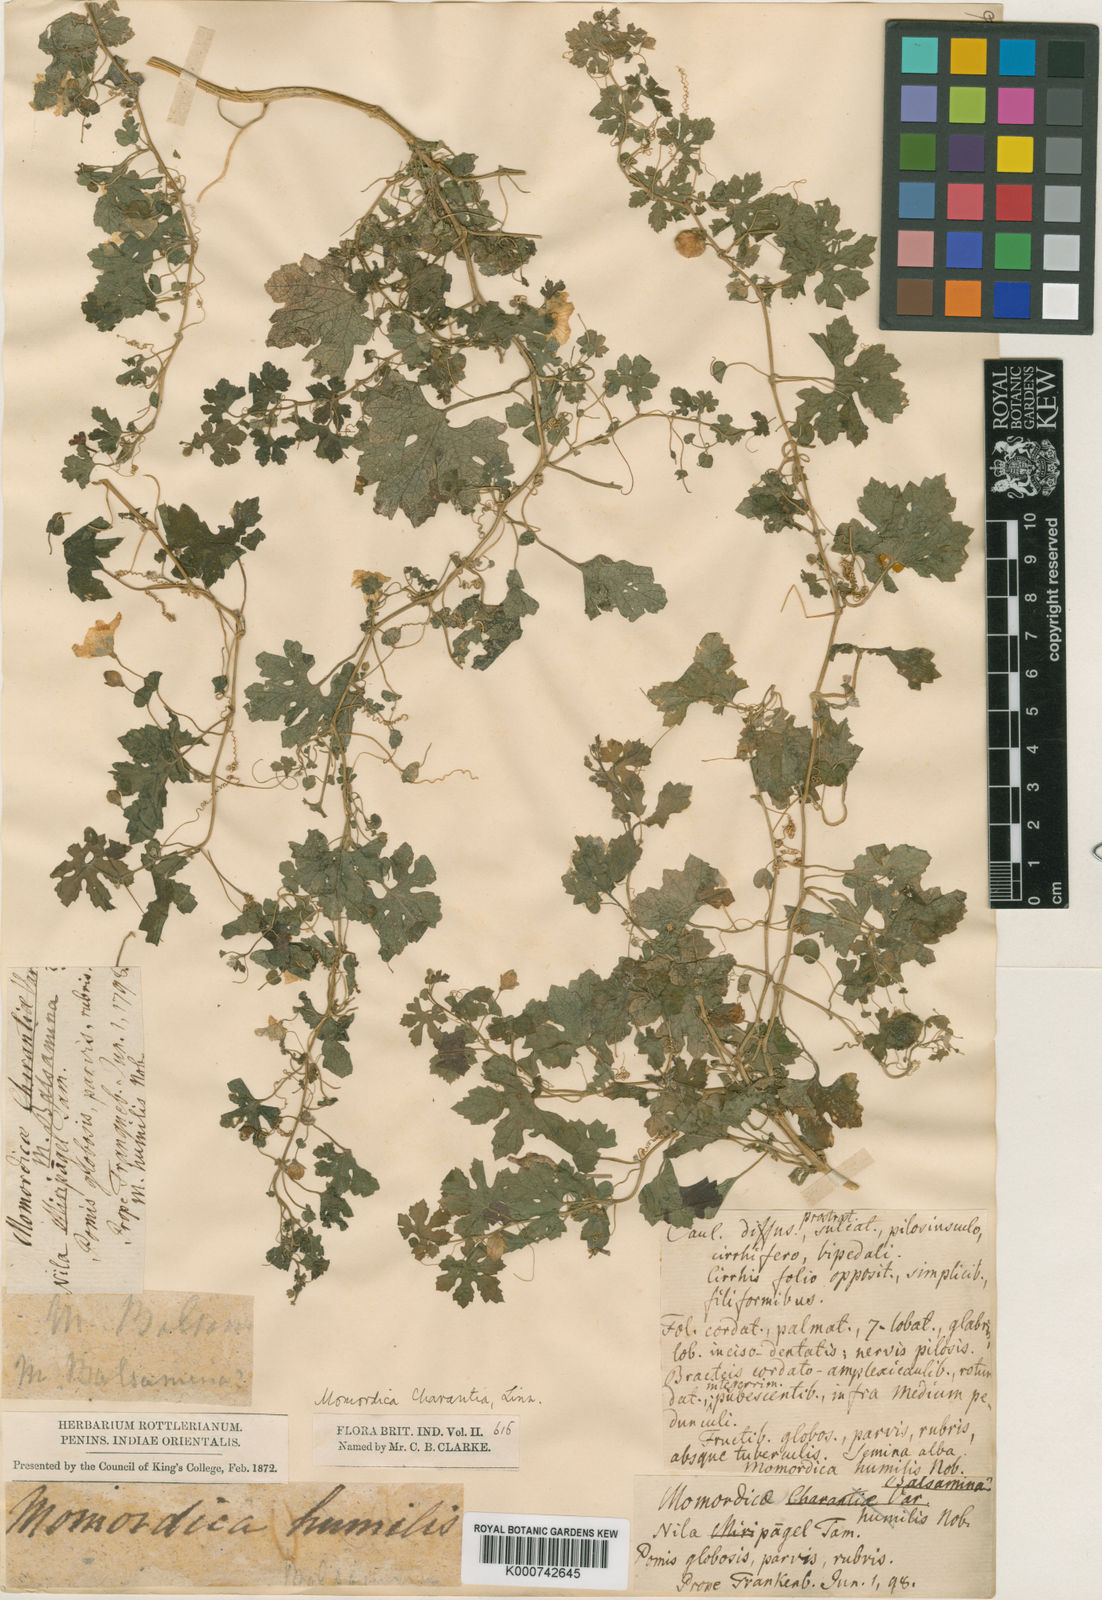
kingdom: Plantae
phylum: Tracheophyta
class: Magnoliopsida
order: Cucurbitales
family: Cucurbitaceae
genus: Momordica
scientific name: Momordica charantia
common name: Balsampear
